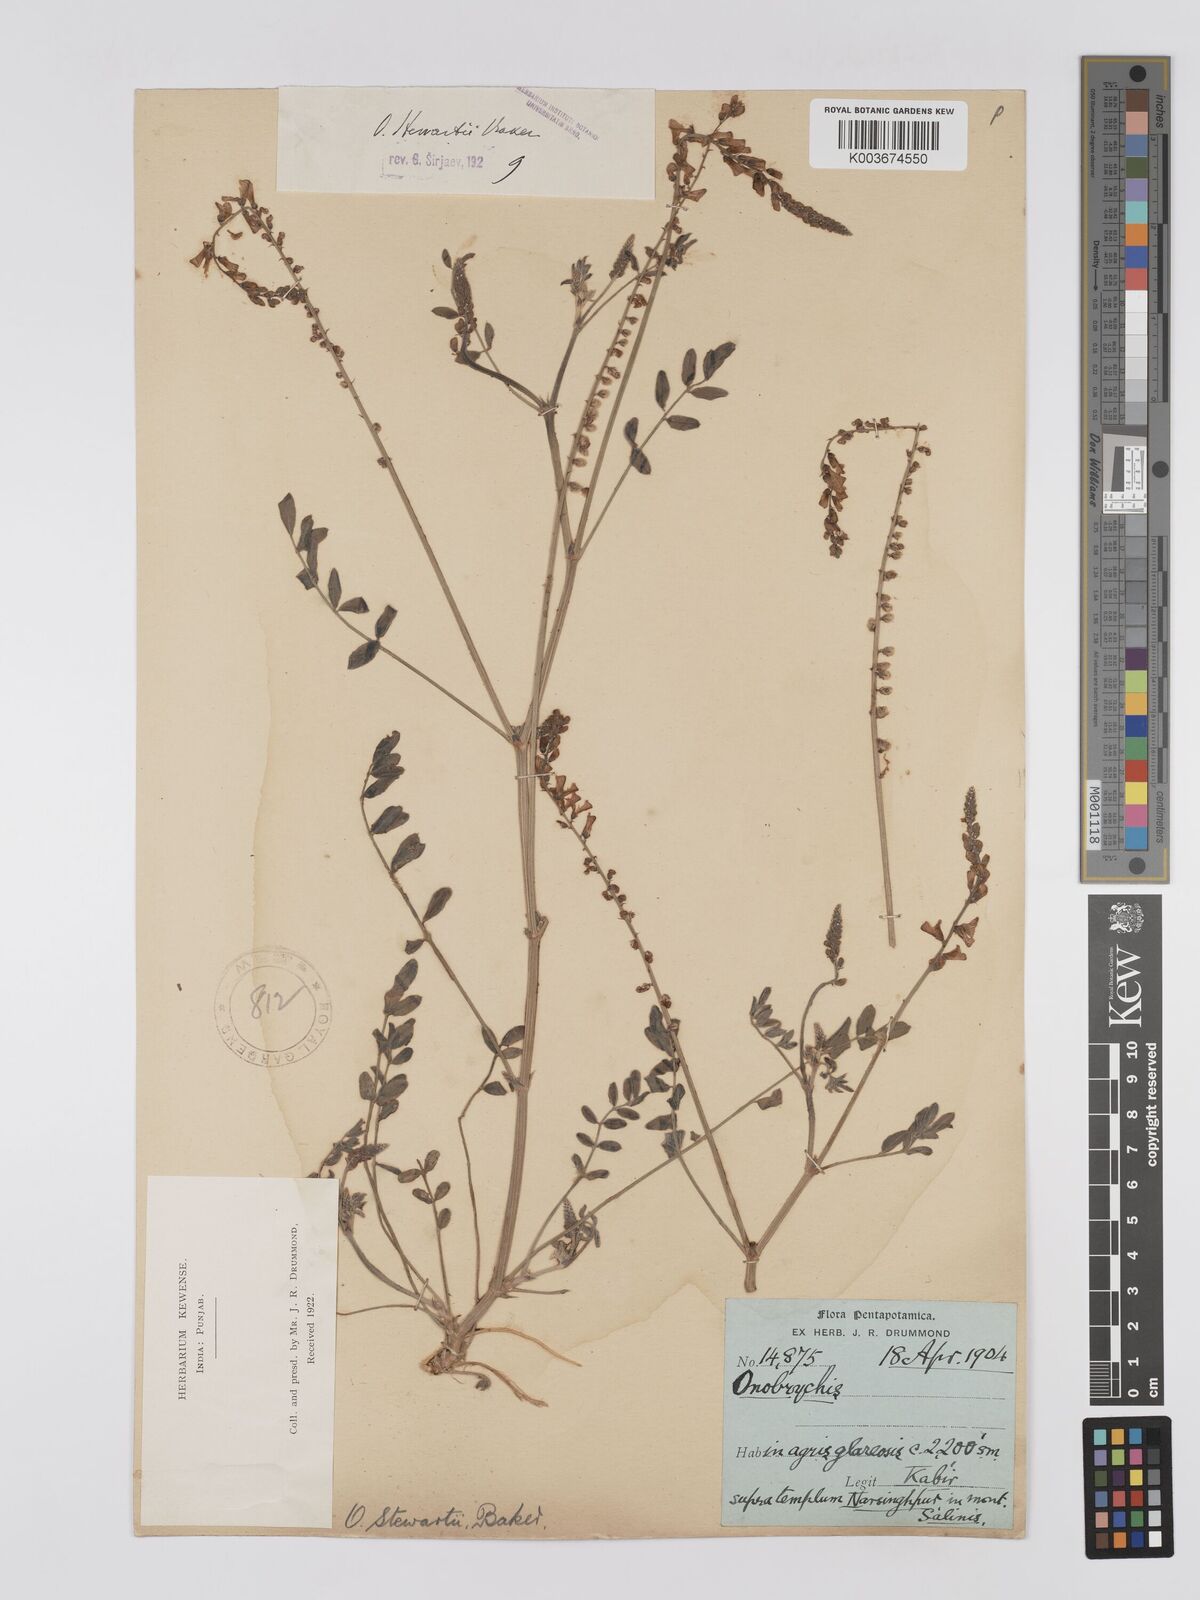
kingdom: Plantae
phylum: Tracheophyta
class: Magnoliopsida
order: Fabales
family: Fabaceae
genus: Onobrychis
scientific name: Onobrychis stewartii
